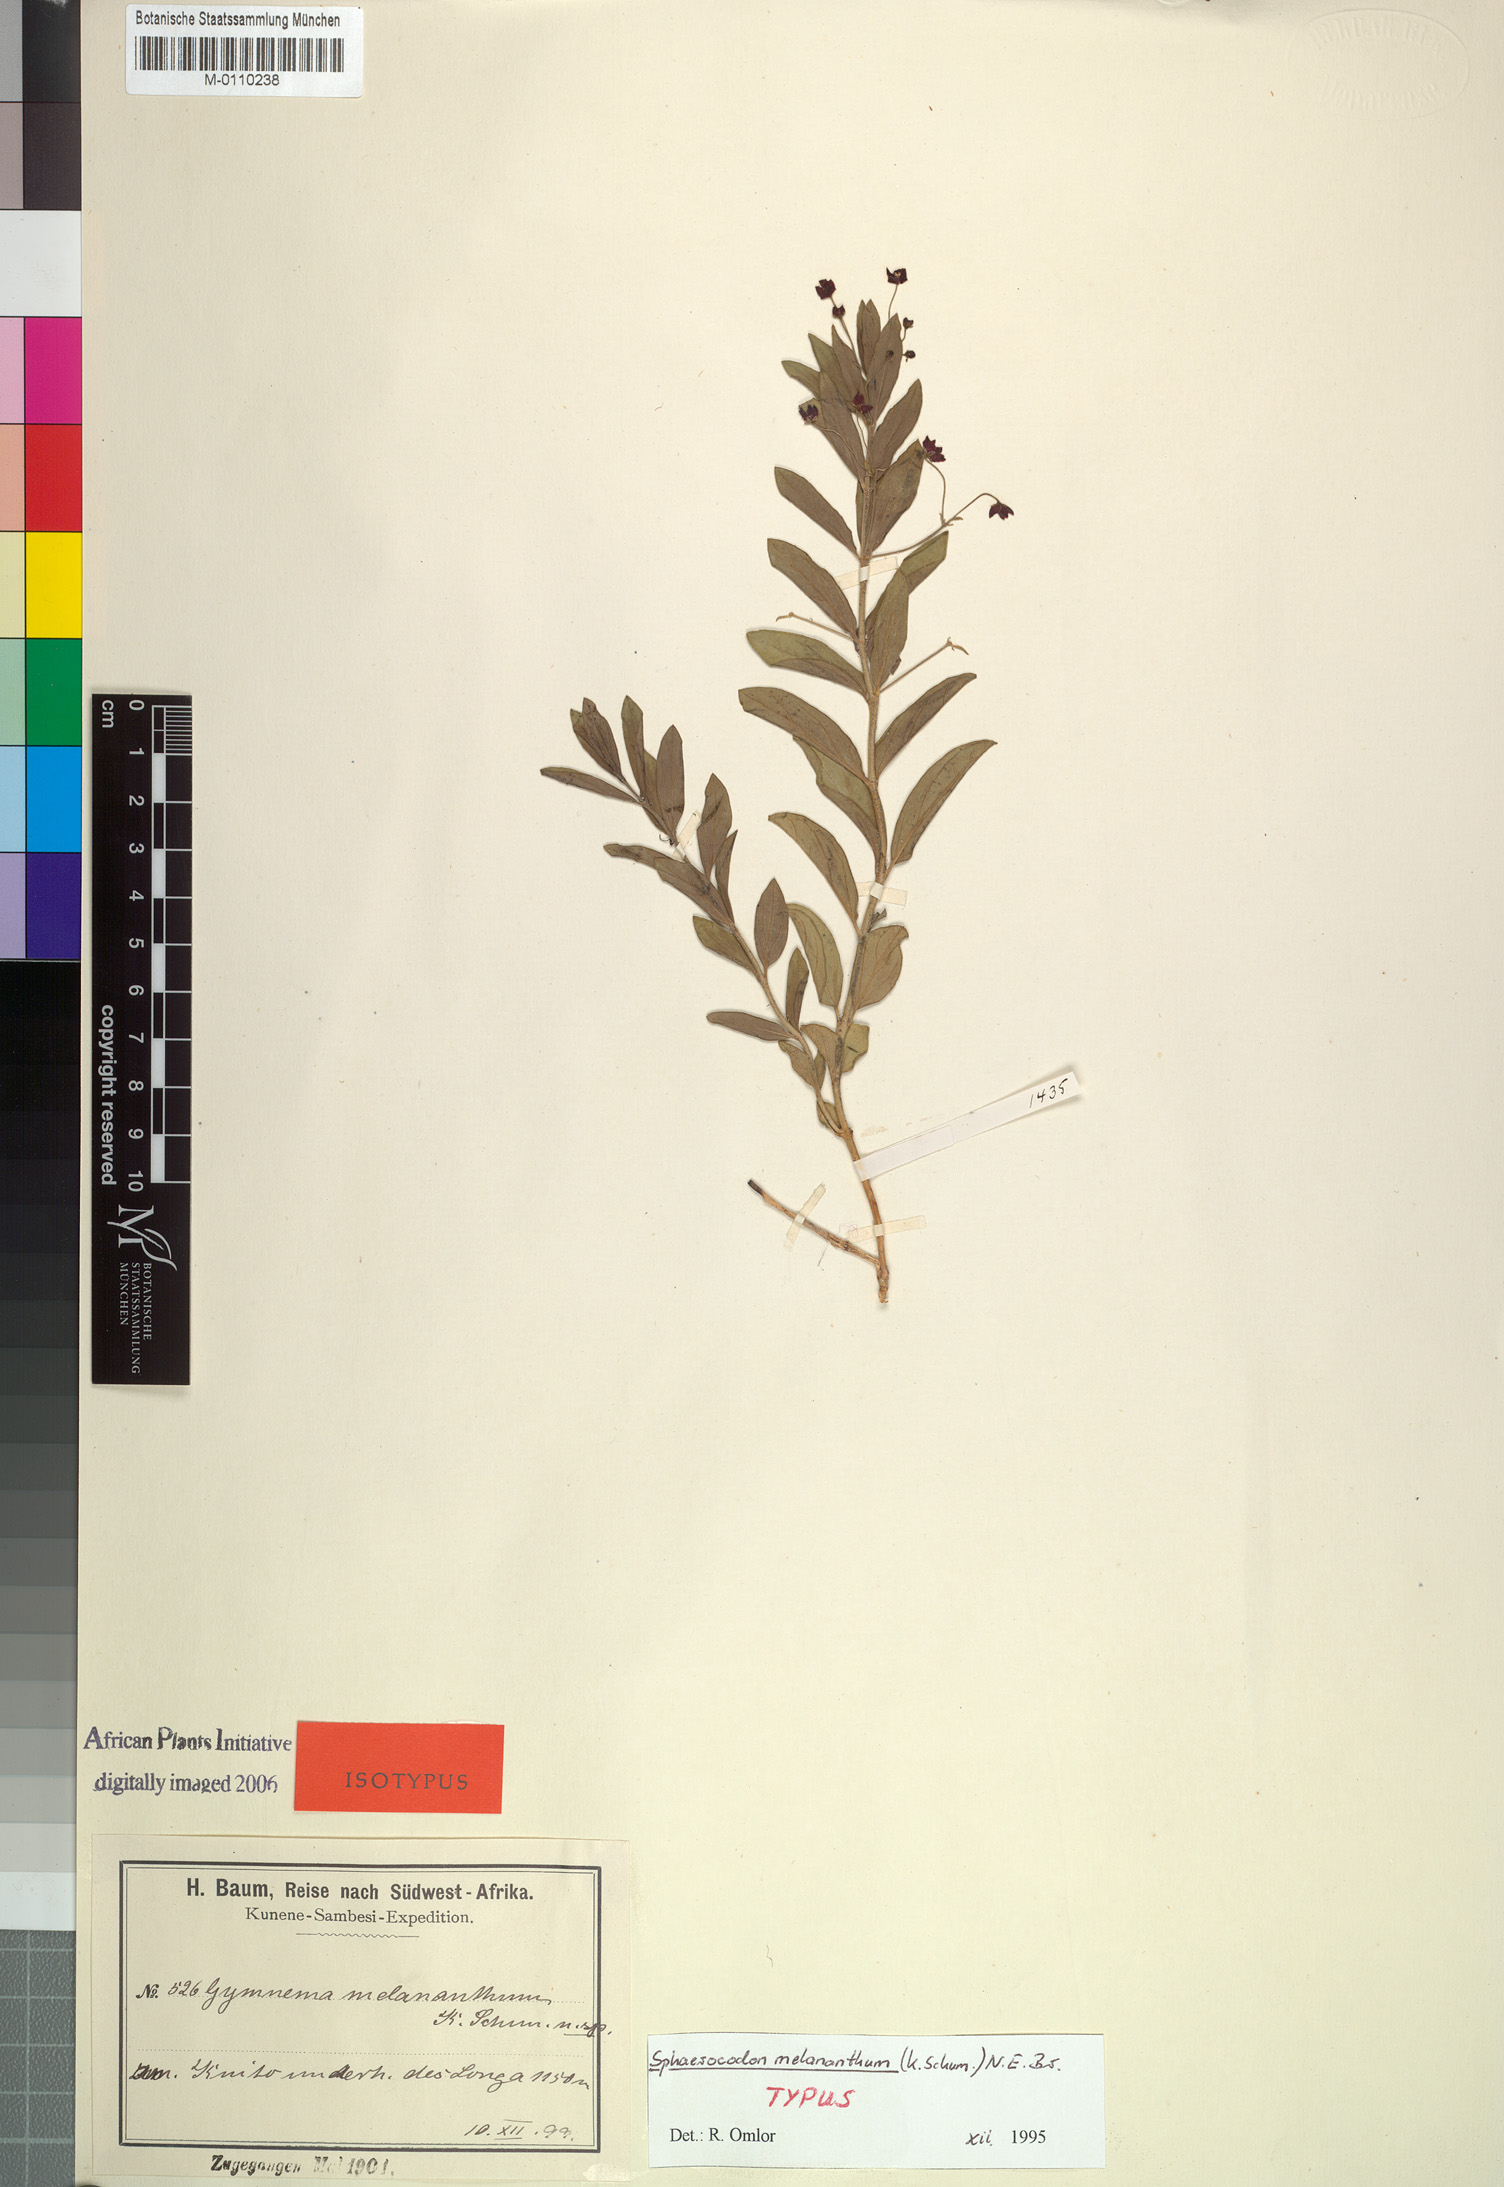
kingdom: Plantae
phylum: Tracheophyta
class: Magnoliopsida
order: Gentianales
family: Apocynaceae
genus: Vincetoxicum
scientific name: Vincetoxicum caffrum
